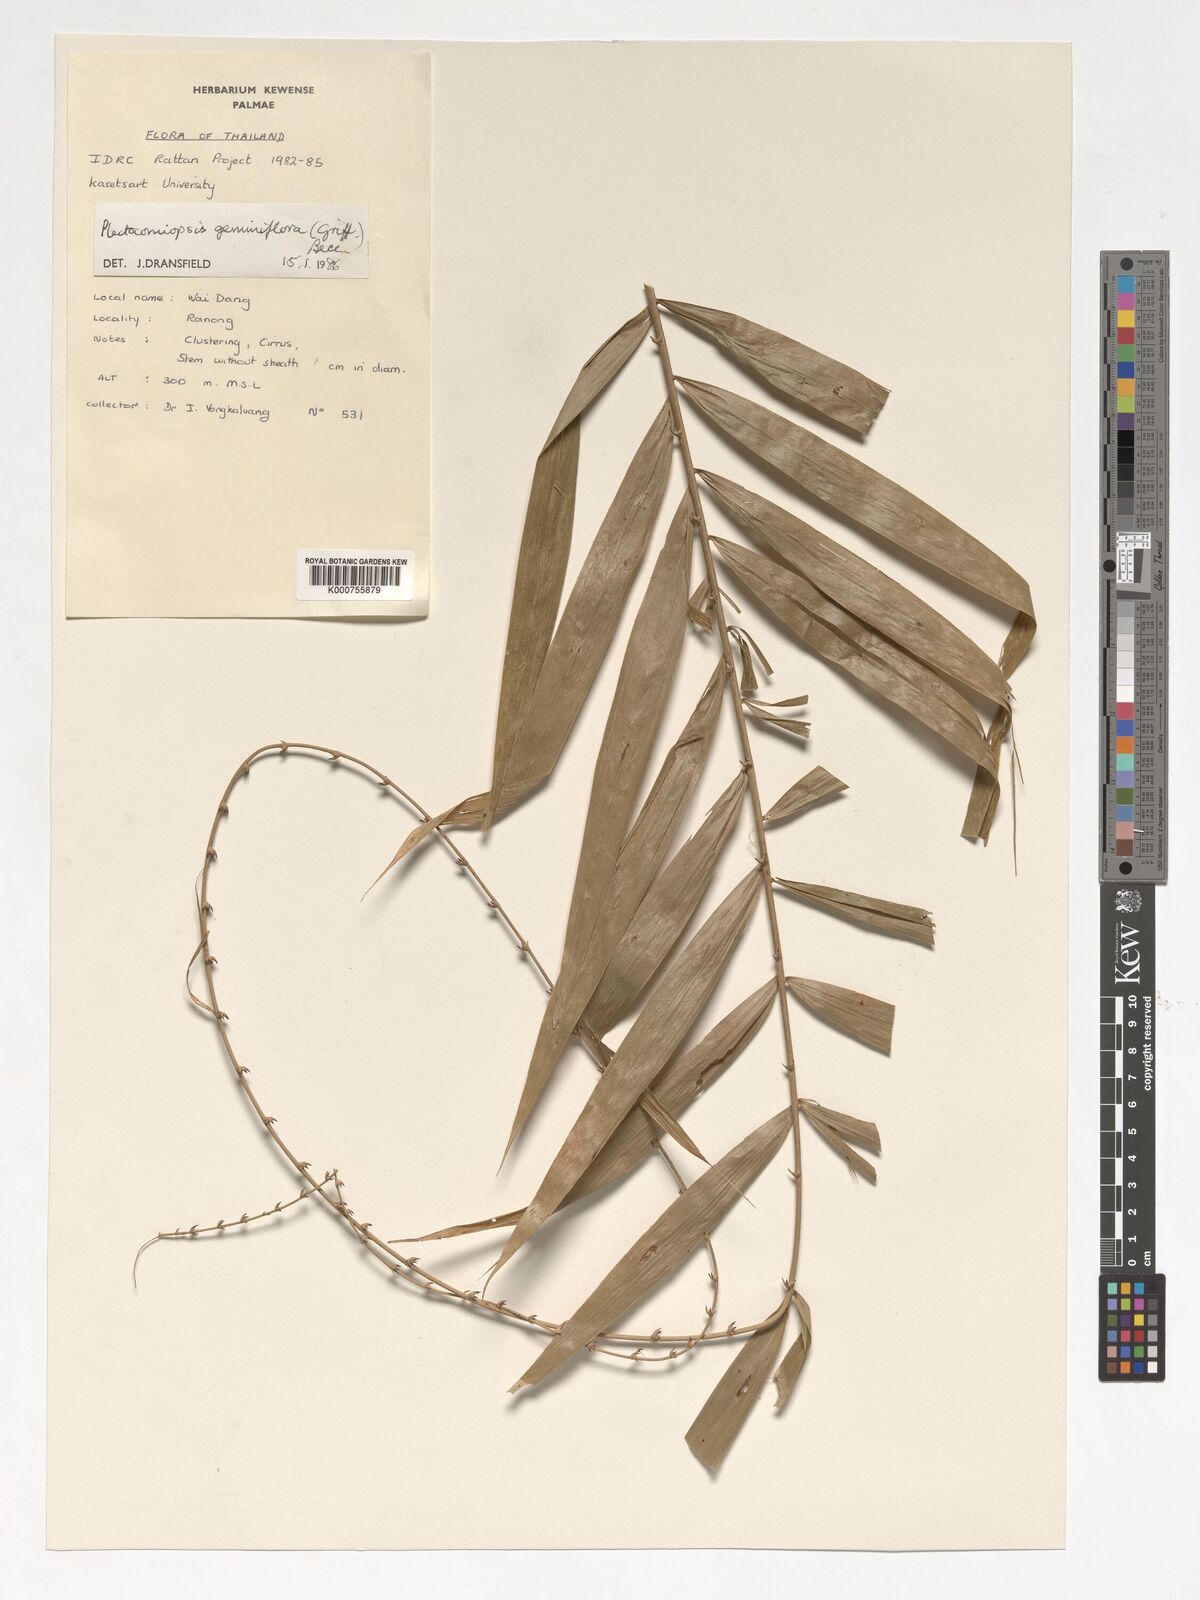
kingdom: Plantae
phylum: Tracheophyta
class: Liliopsida
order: Arecales
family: Arecaceae
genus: Plectocomiopsis
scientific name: Plectocomiopsis geminiflora
